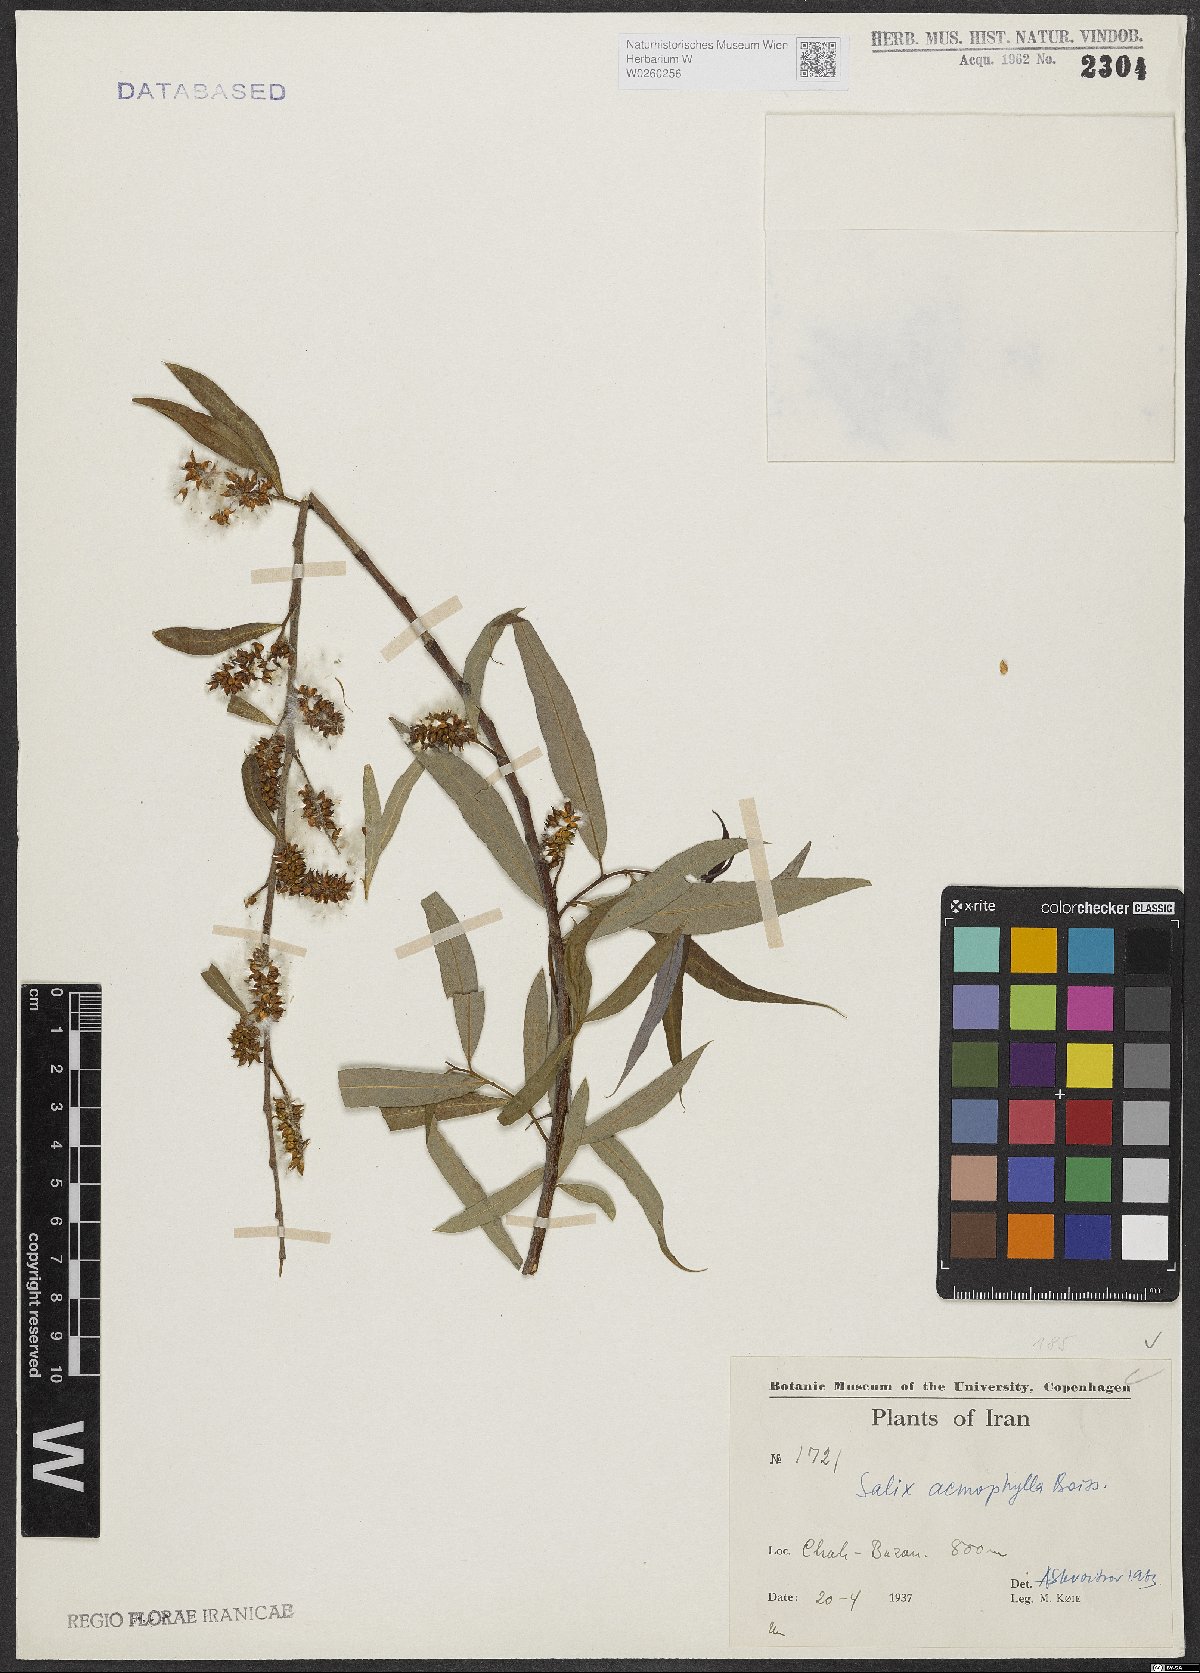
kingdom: Plantae
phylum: Tracheophyta
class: Magnoliopsida
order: Malpighiales
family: Salicaceae
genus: Salix
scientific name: Salix acmophylla
